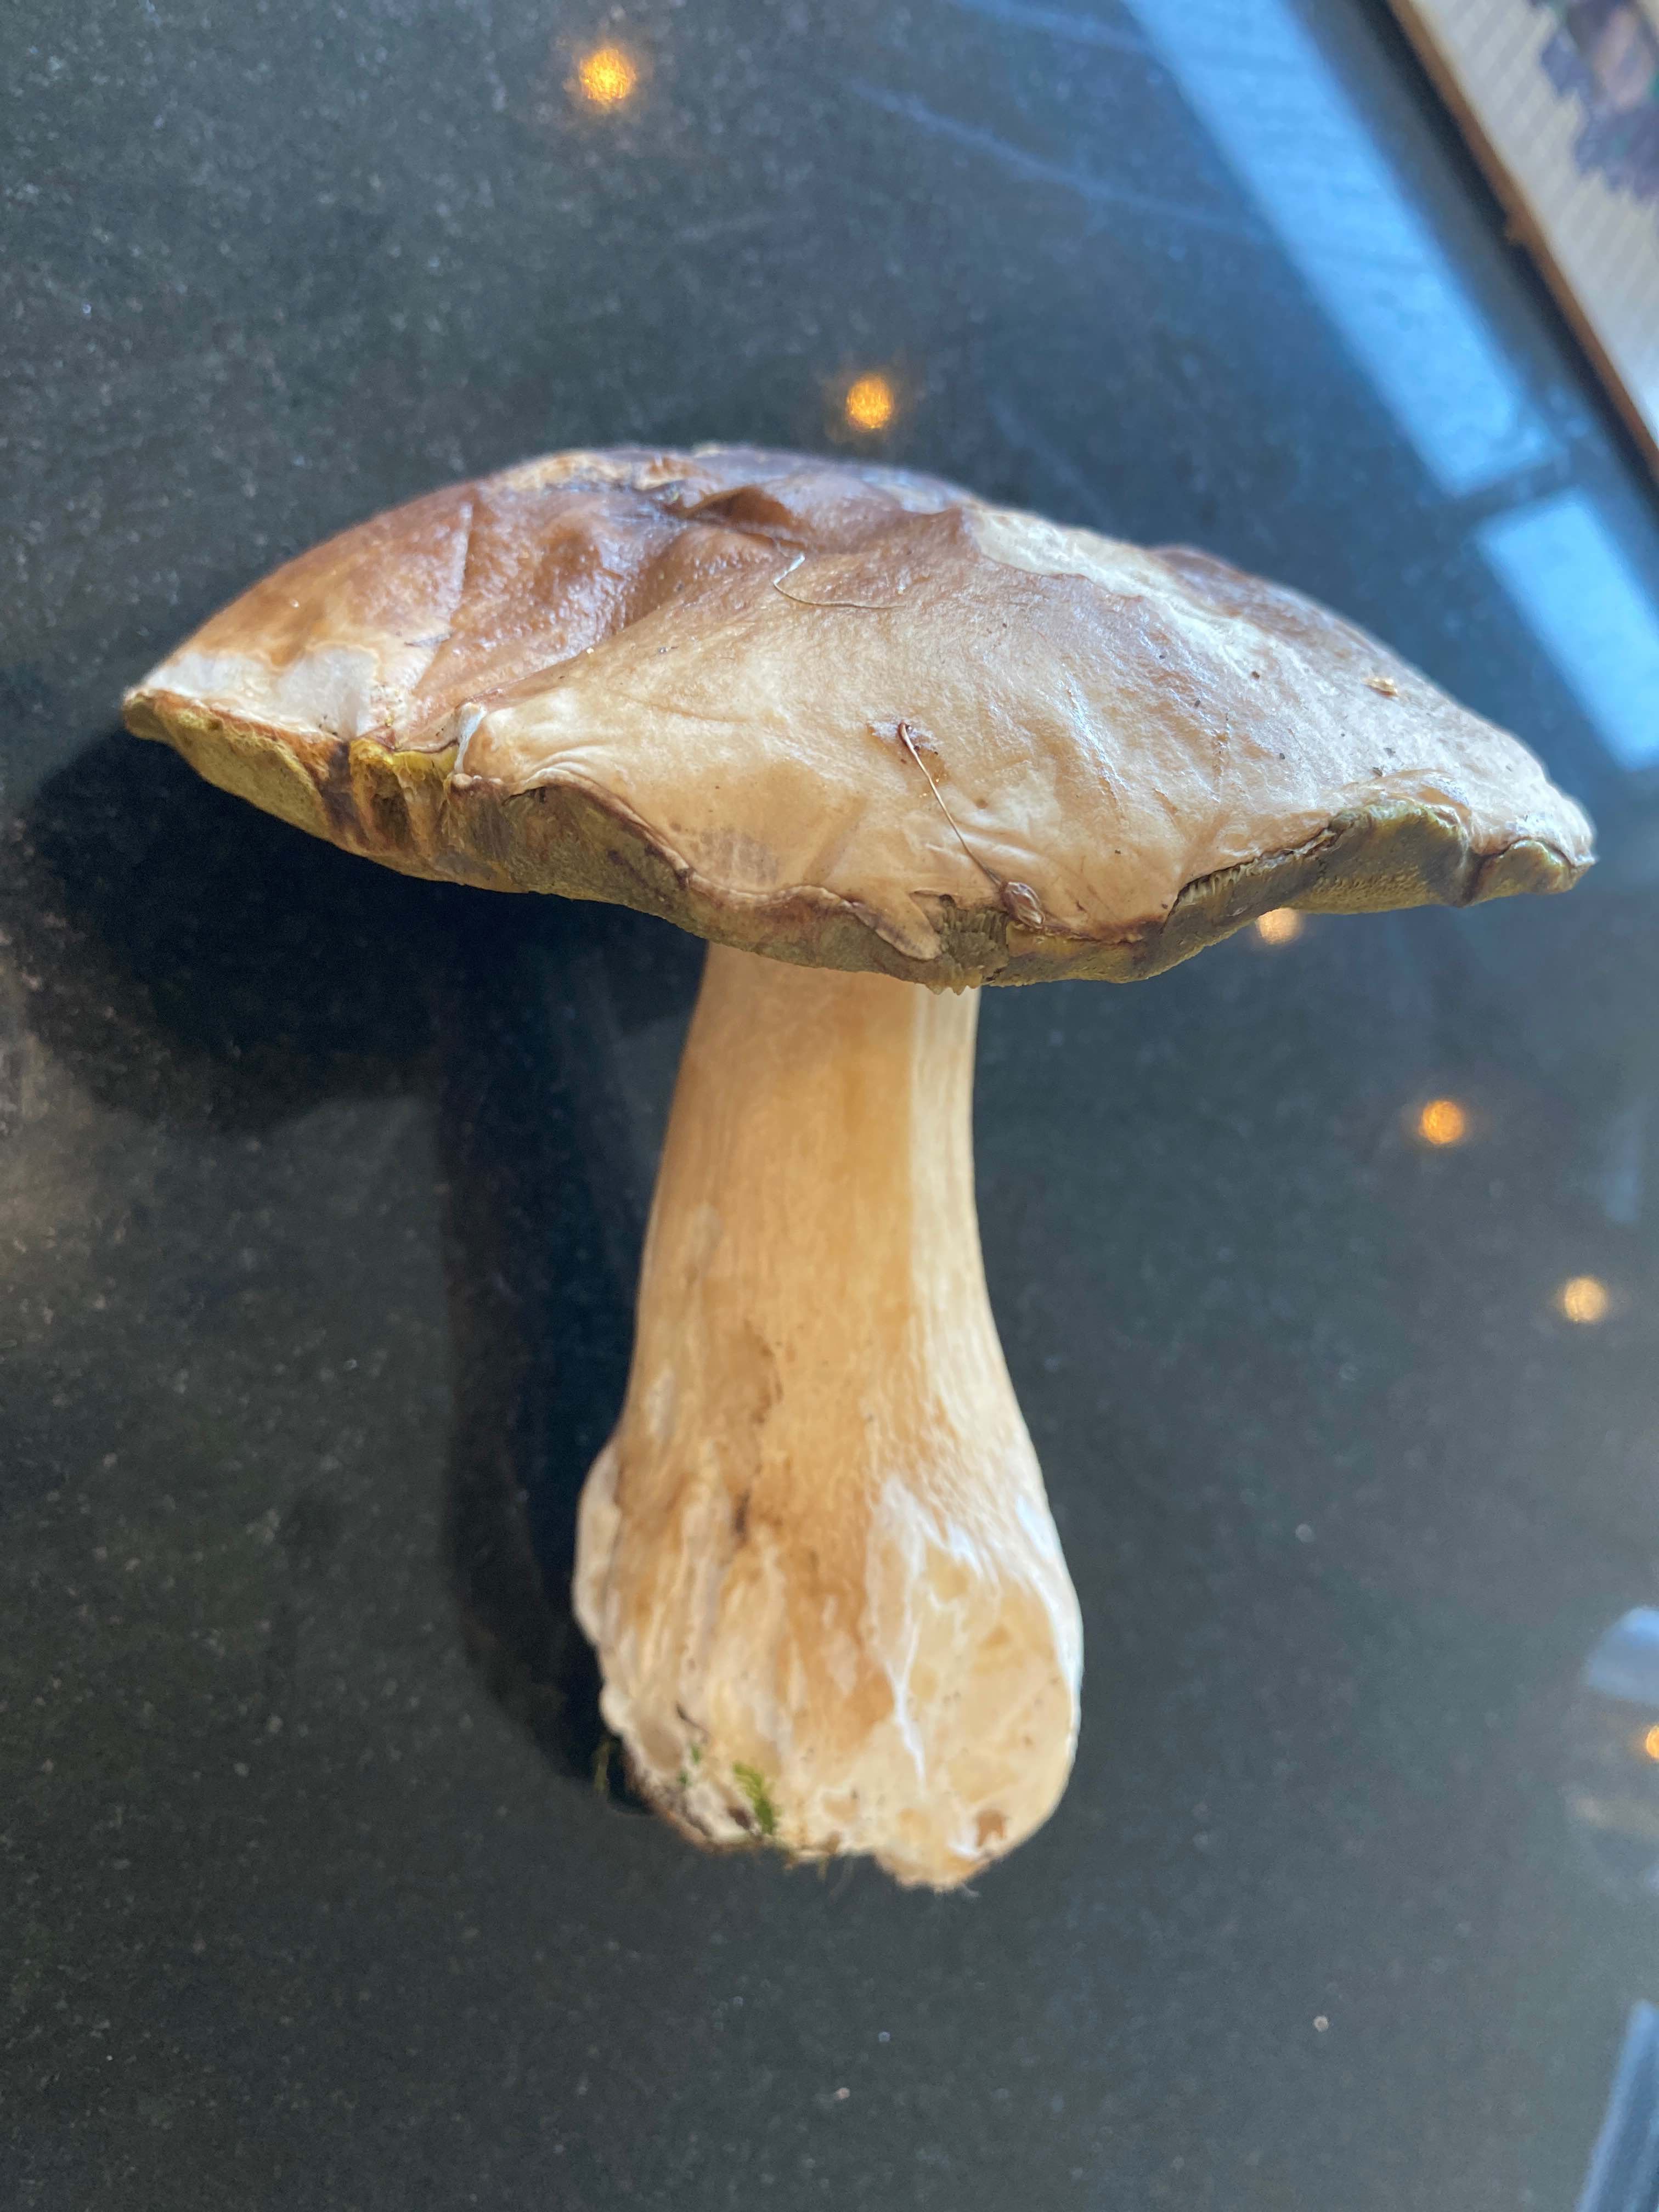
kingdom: Fungi
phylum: Basidiomycota
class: Agaricomycetes
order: Boletales
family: Boletaceae
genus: Boletus
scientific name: Boletus edulis
